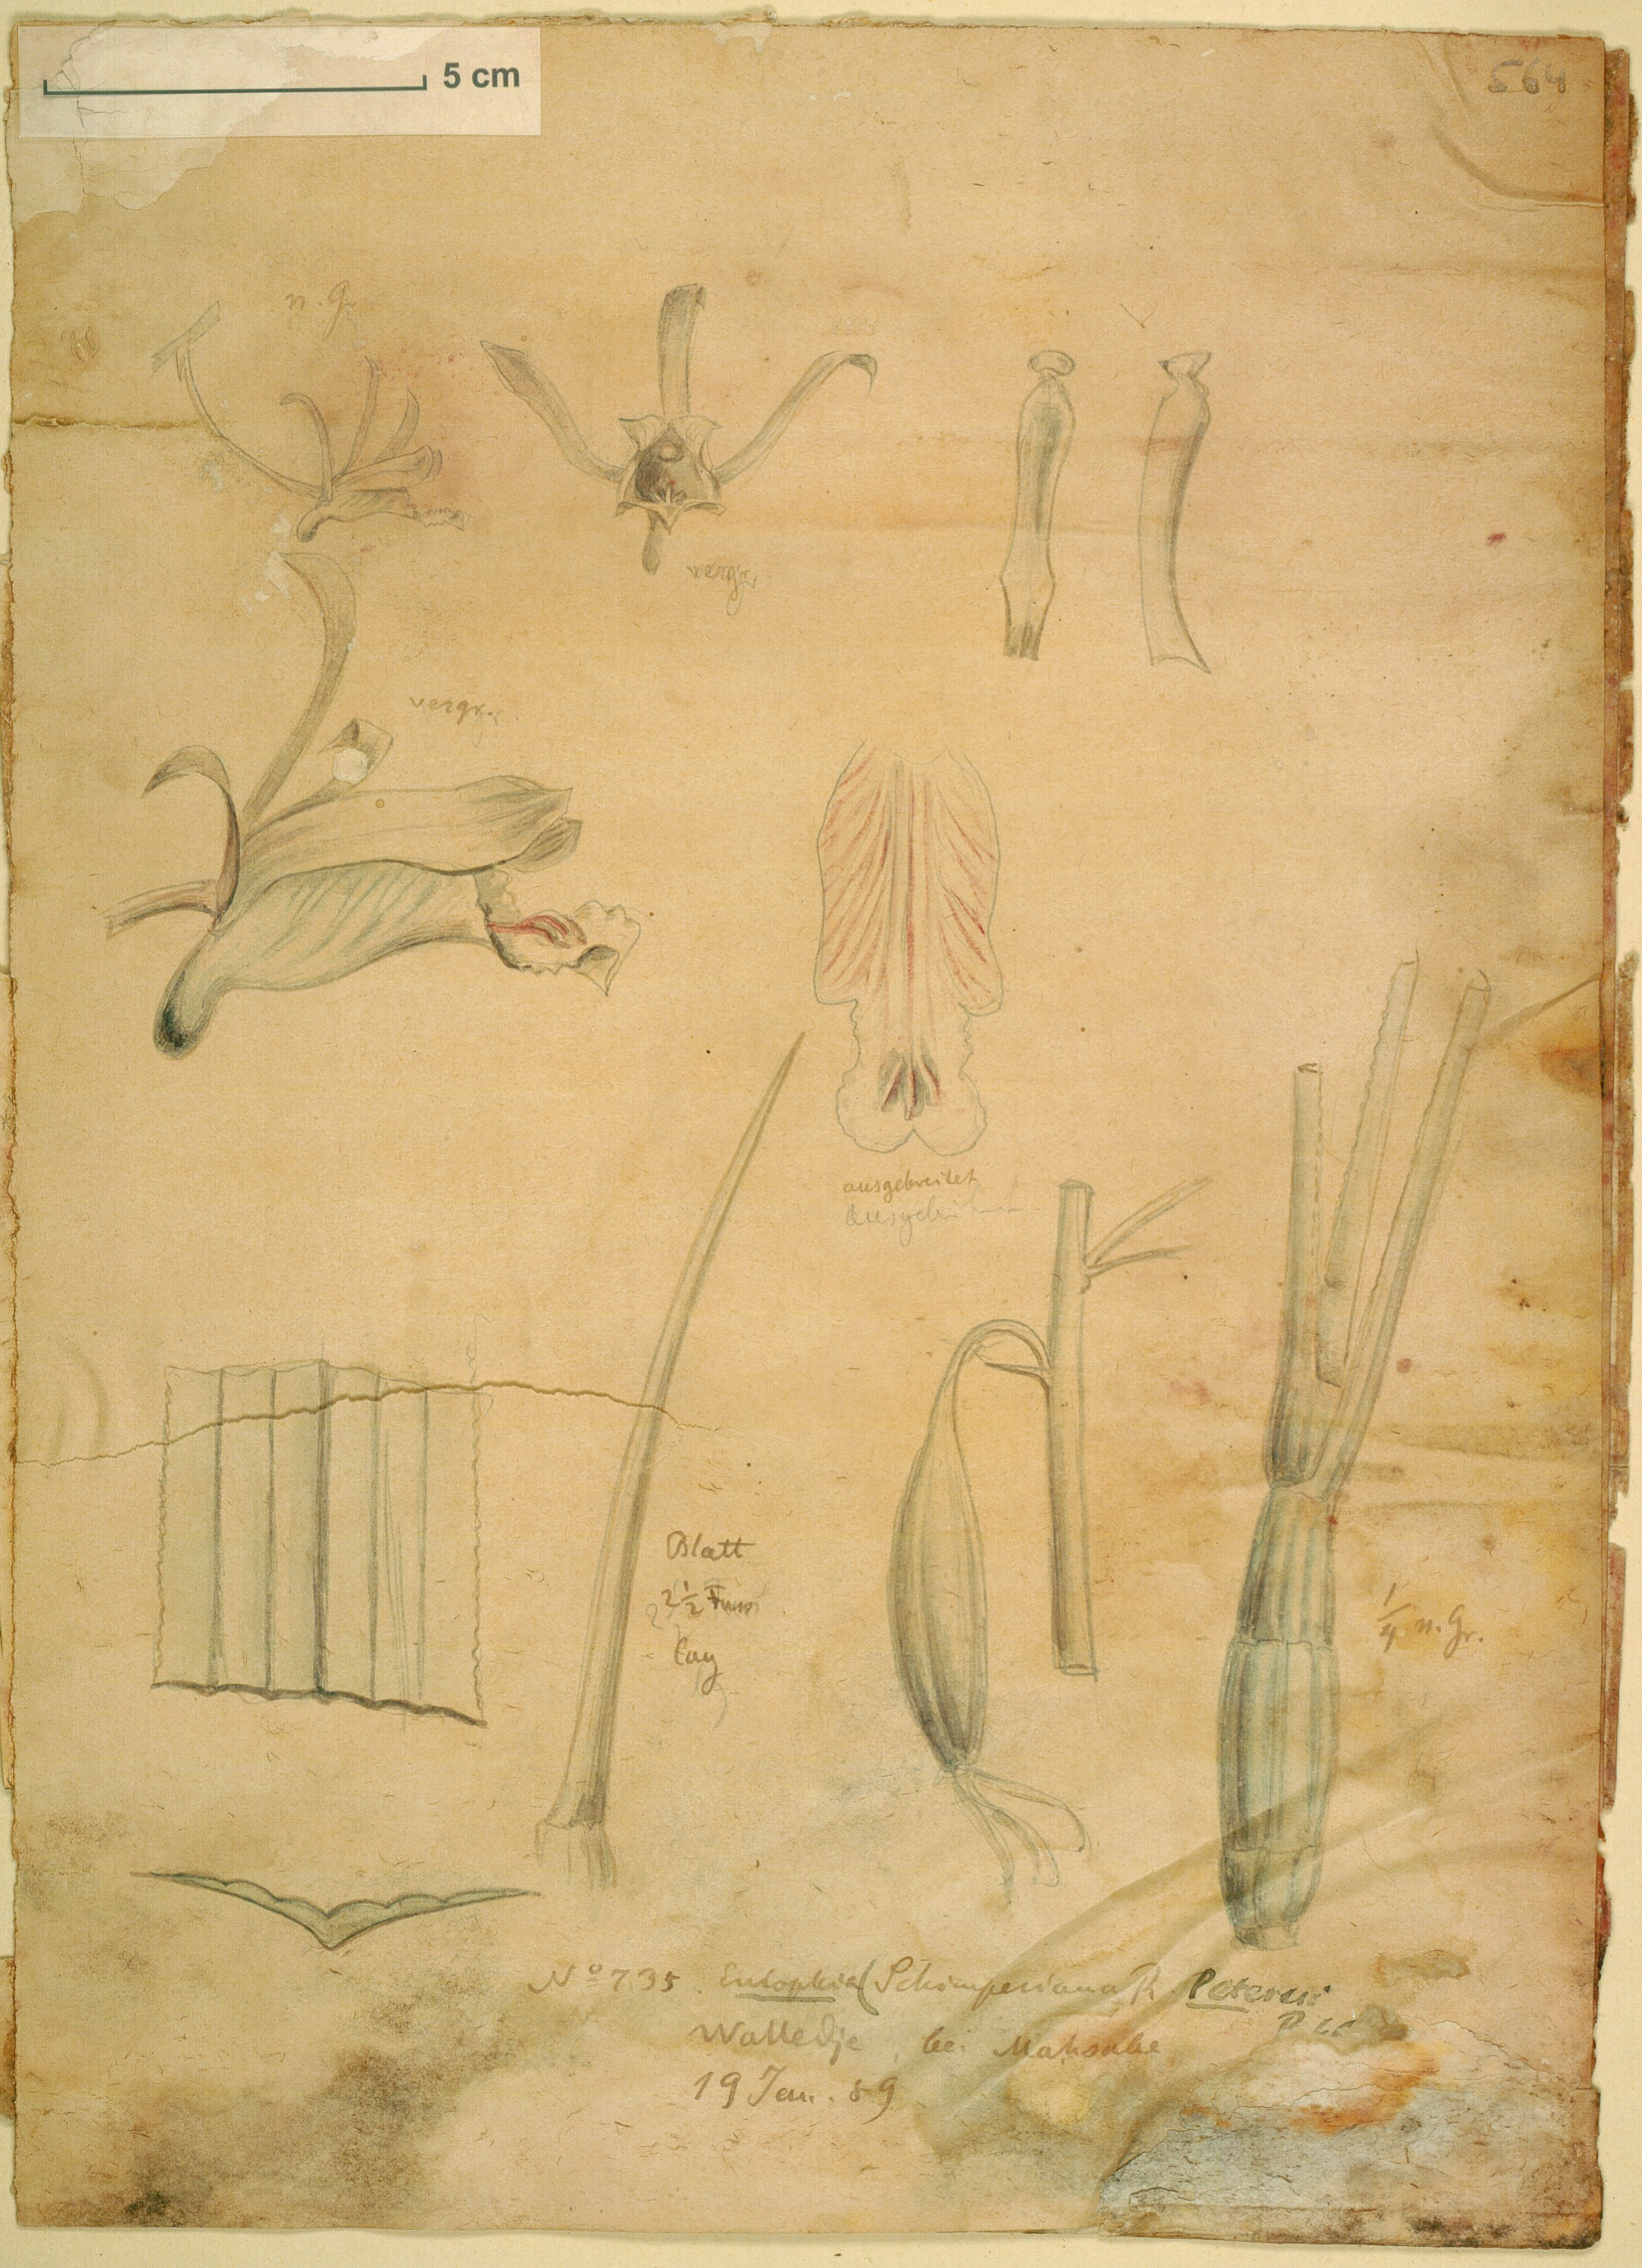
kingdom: Plantae
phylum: Tracheophyta
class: Liliopsida
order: Asparagales
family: Orchidaceae
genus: Eulophia
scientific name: Eulophia petersii
